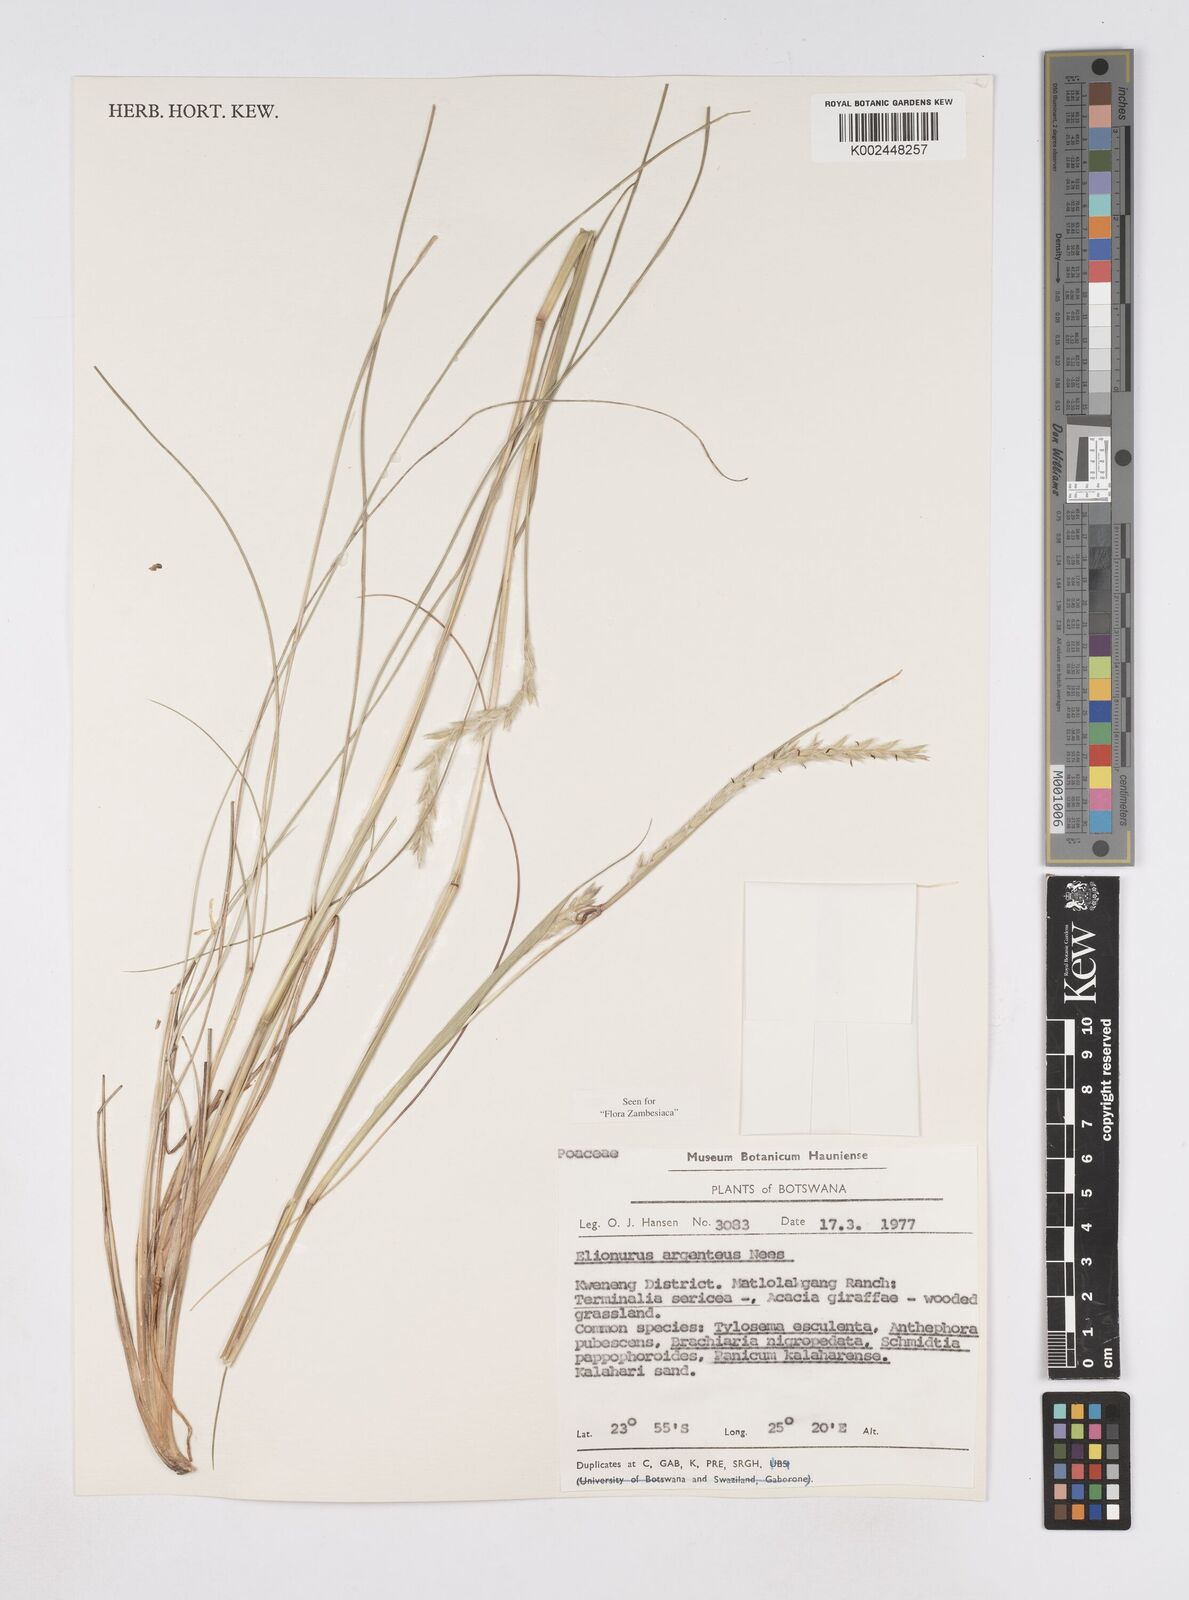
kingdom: Plantae
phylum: Tracheophyta
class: Liliopsida
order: Poales
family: Poaceae
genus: Elionurus
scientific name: Elionurus muticus
